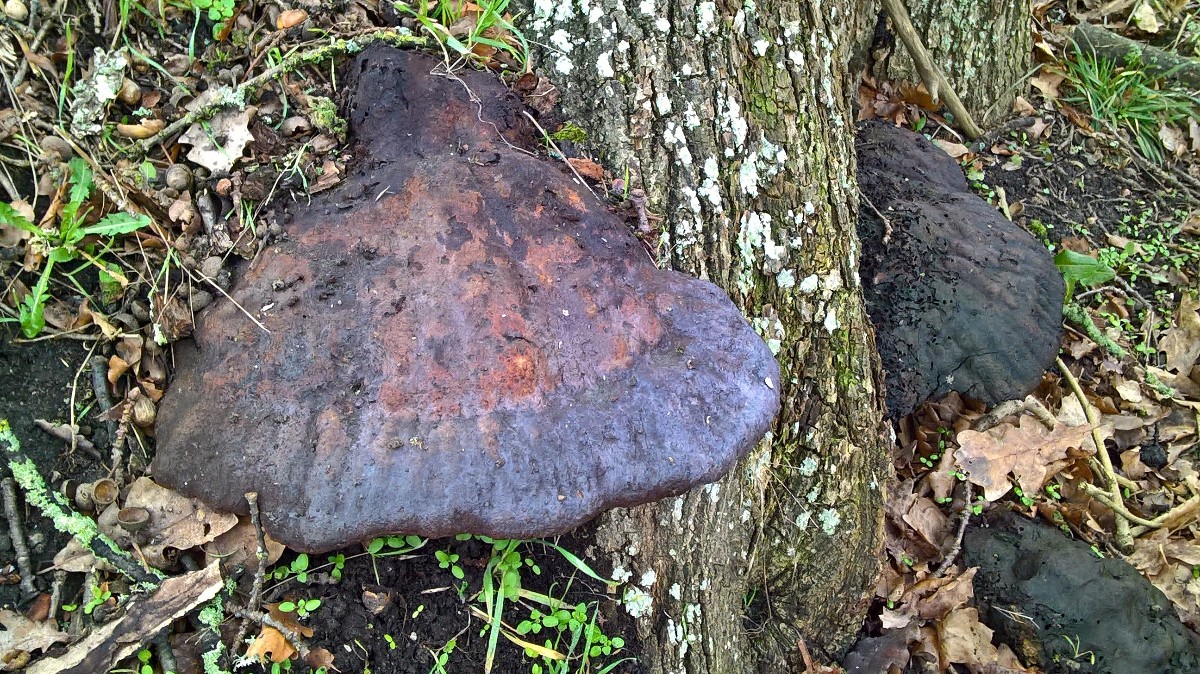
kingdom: Fungi
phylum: Basidiomycota
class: Agaricomycetes
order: Hymenochaetales
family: Hymenochaetaceae
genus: Pseudoinonotus
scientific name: Pseudoinonotus dryadeus
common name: ege-spejlporesvamp
